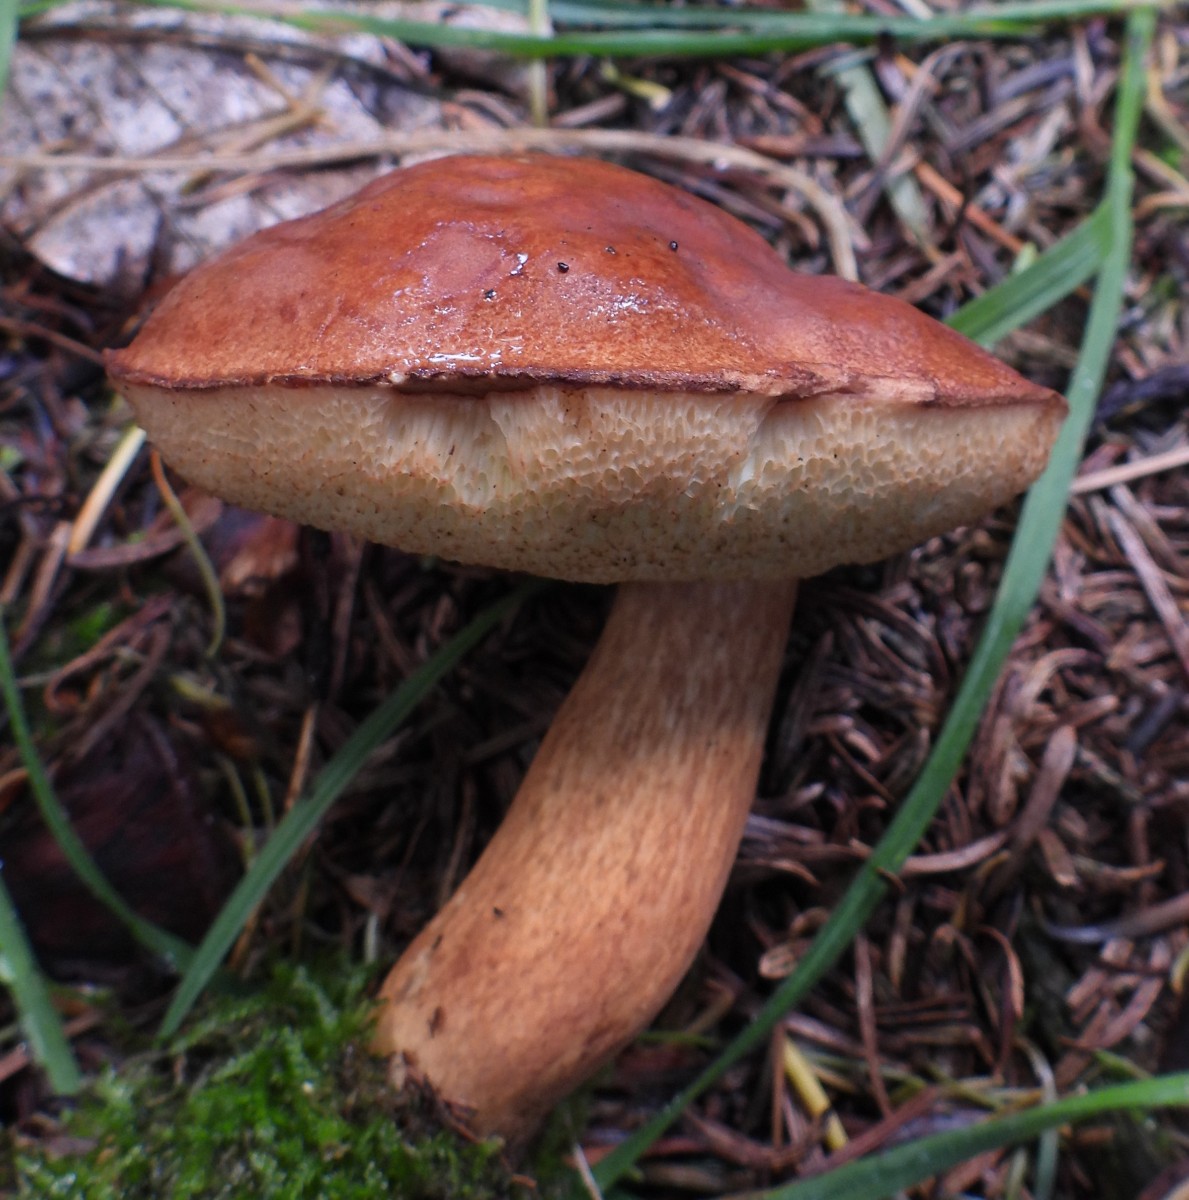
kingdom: Fungi
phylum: Basidiomycota
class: Agaricomycetes
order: Boletales
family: Boletaceae
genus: Imleria
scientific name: Imleria badia
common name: brunstokket rørhat
